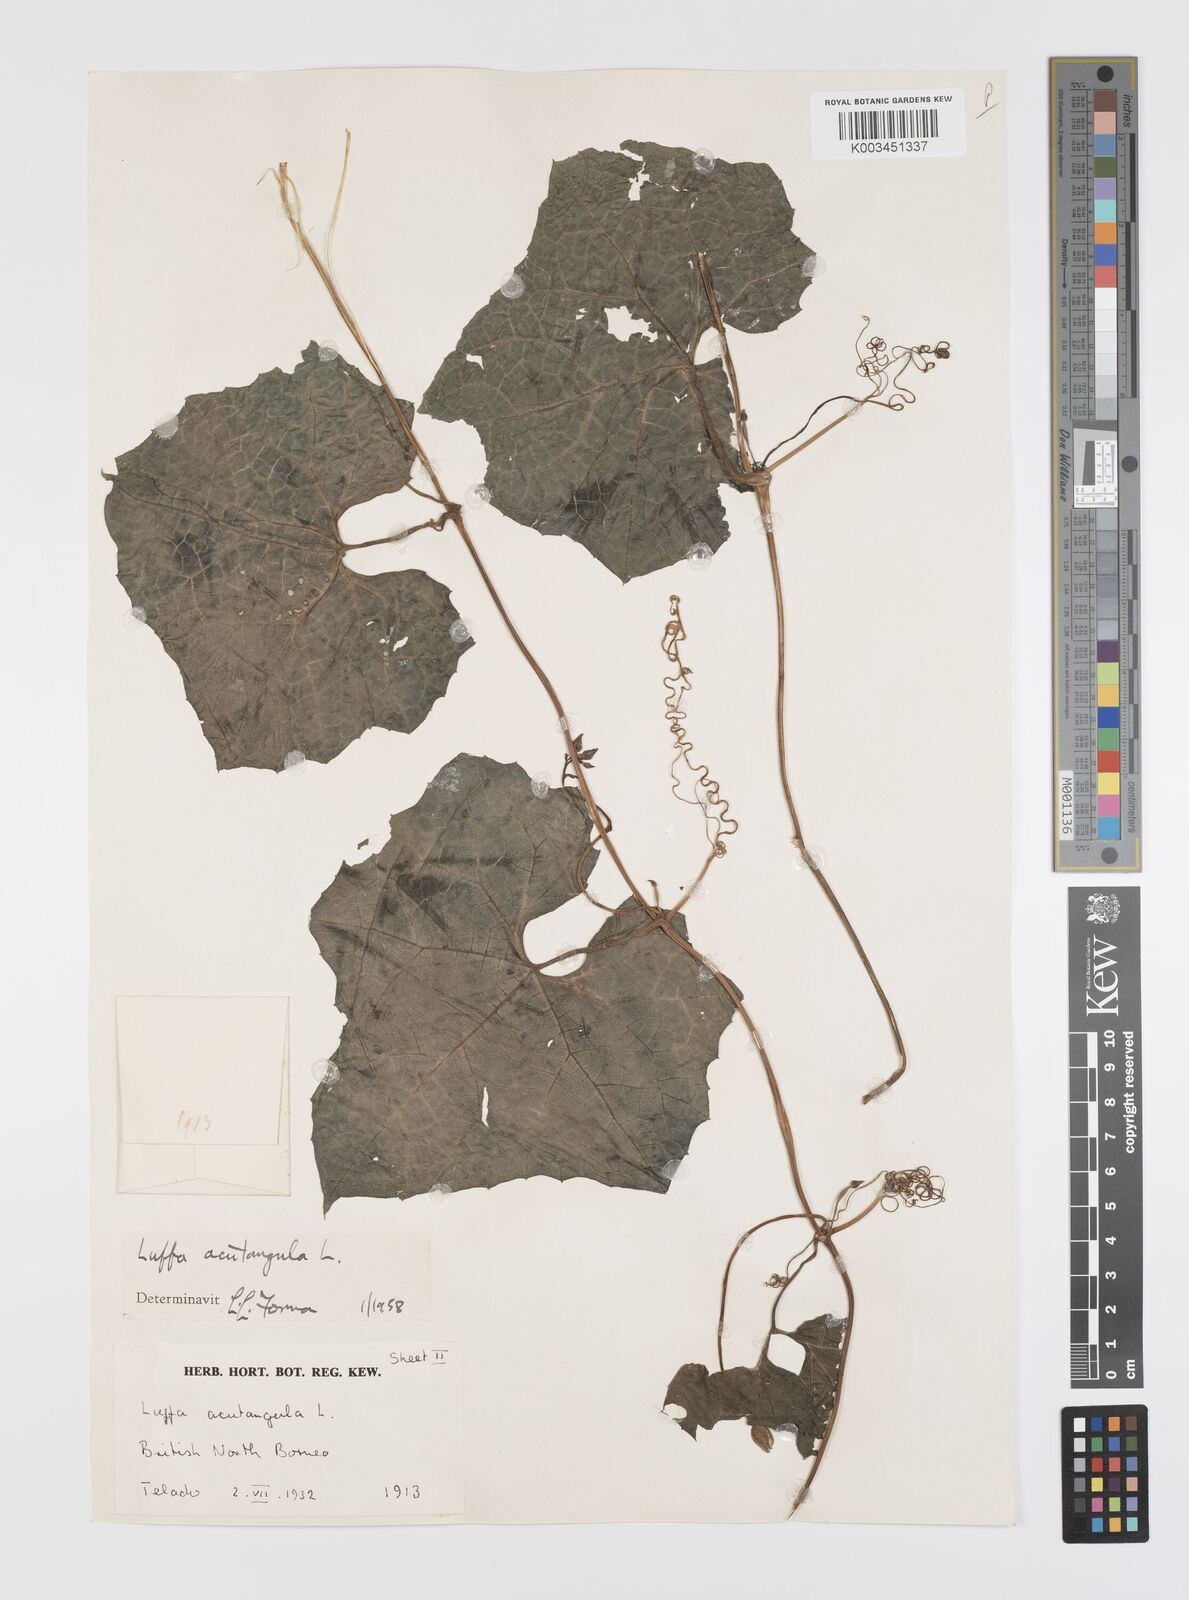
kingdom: Plantae
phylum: Tracheophyta
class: Magnoliopsida
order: Cucurbitales
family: Cucurbitaceae
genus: Luffa
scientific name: Luffa acutangula
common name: Sinkwa towelsponge
